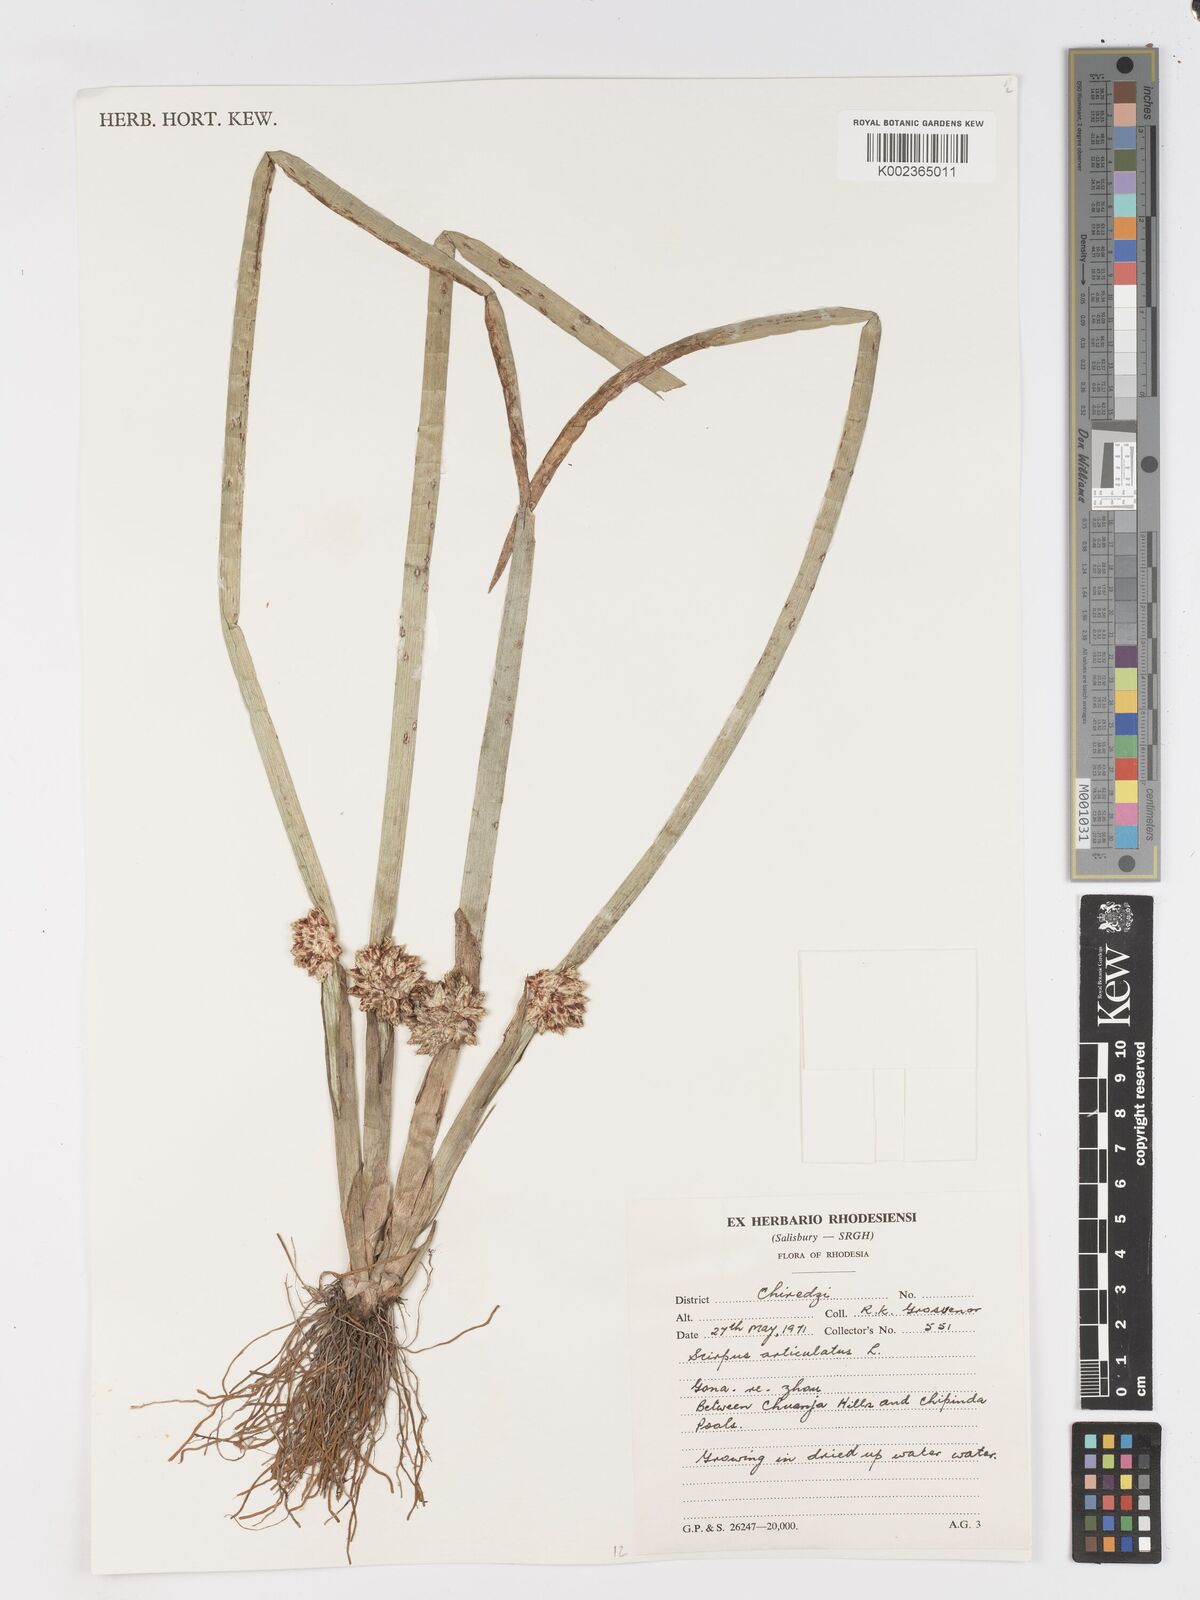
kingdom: Plantae
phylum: Tracheophyta
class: Liliopsida
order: Poales
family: Cyperaceae
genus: Schoenoplectiella
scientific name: Schoenoplectiella articulata
